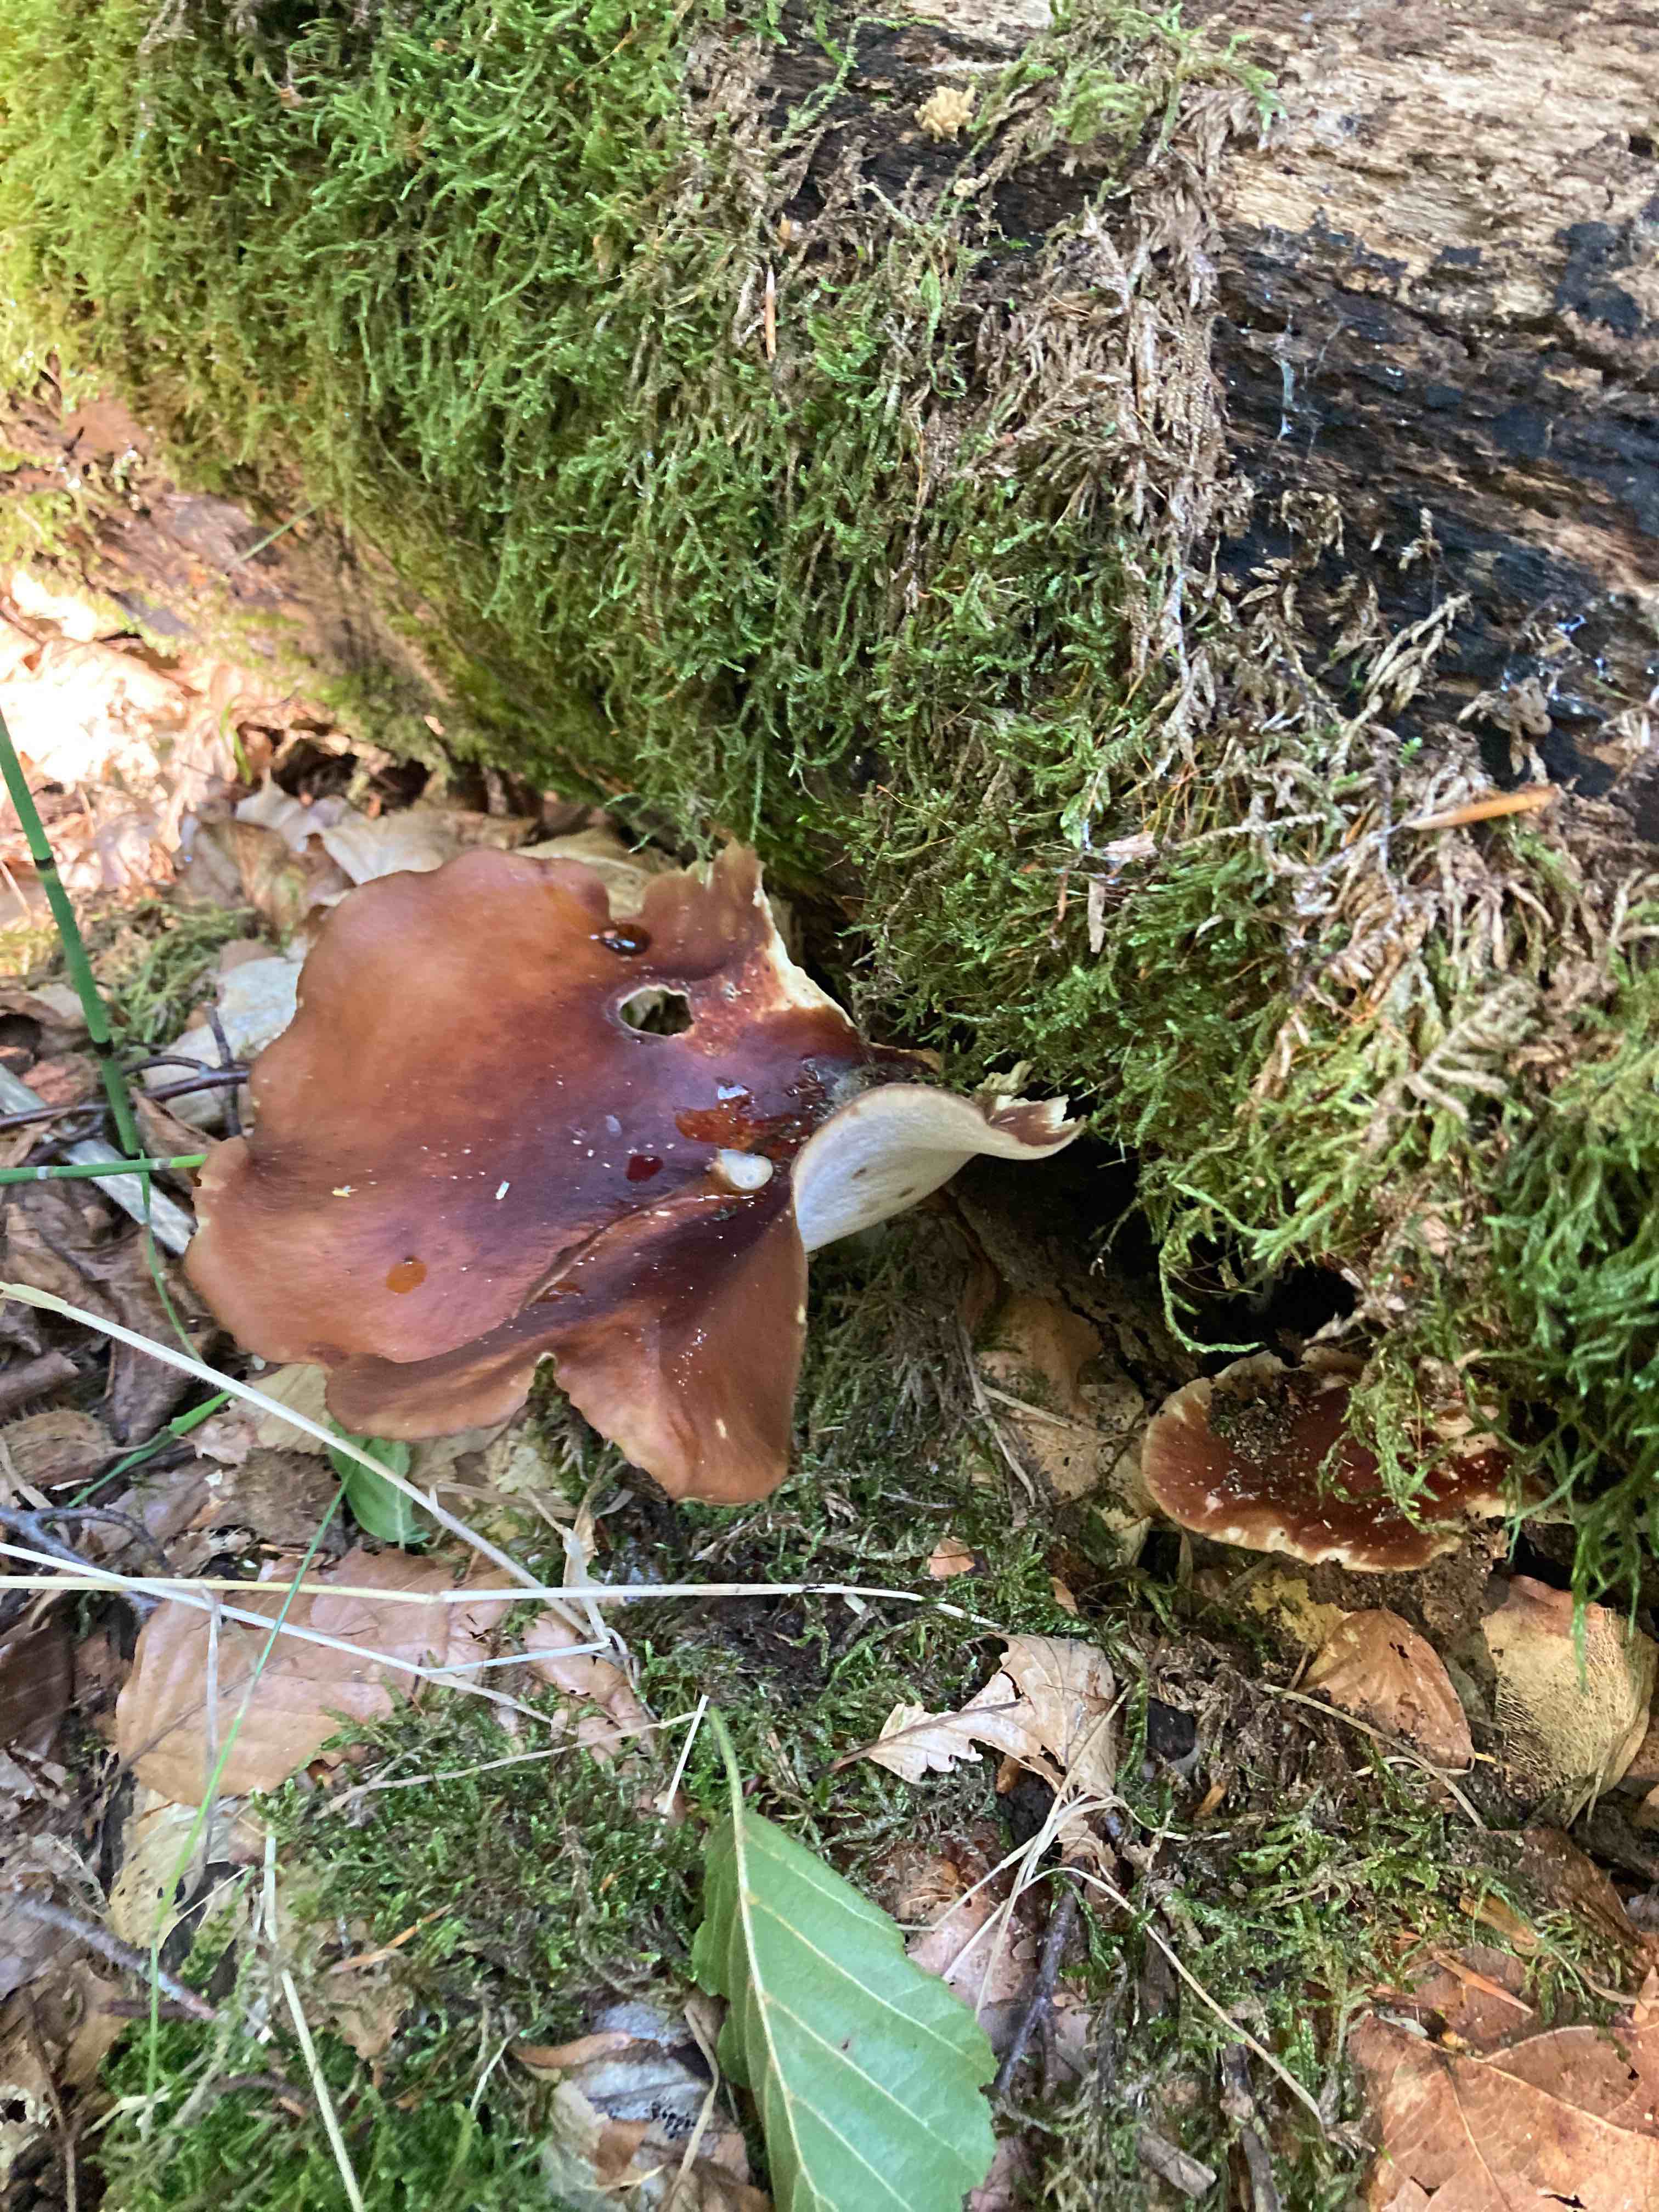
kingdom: Fungi
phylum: Basidiomycota
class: Agaricomycetes
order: Polyporales
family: Polyporaceae
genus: Picipes
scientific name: Picipes badius
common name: kastaniebrun stilkporesvamp
